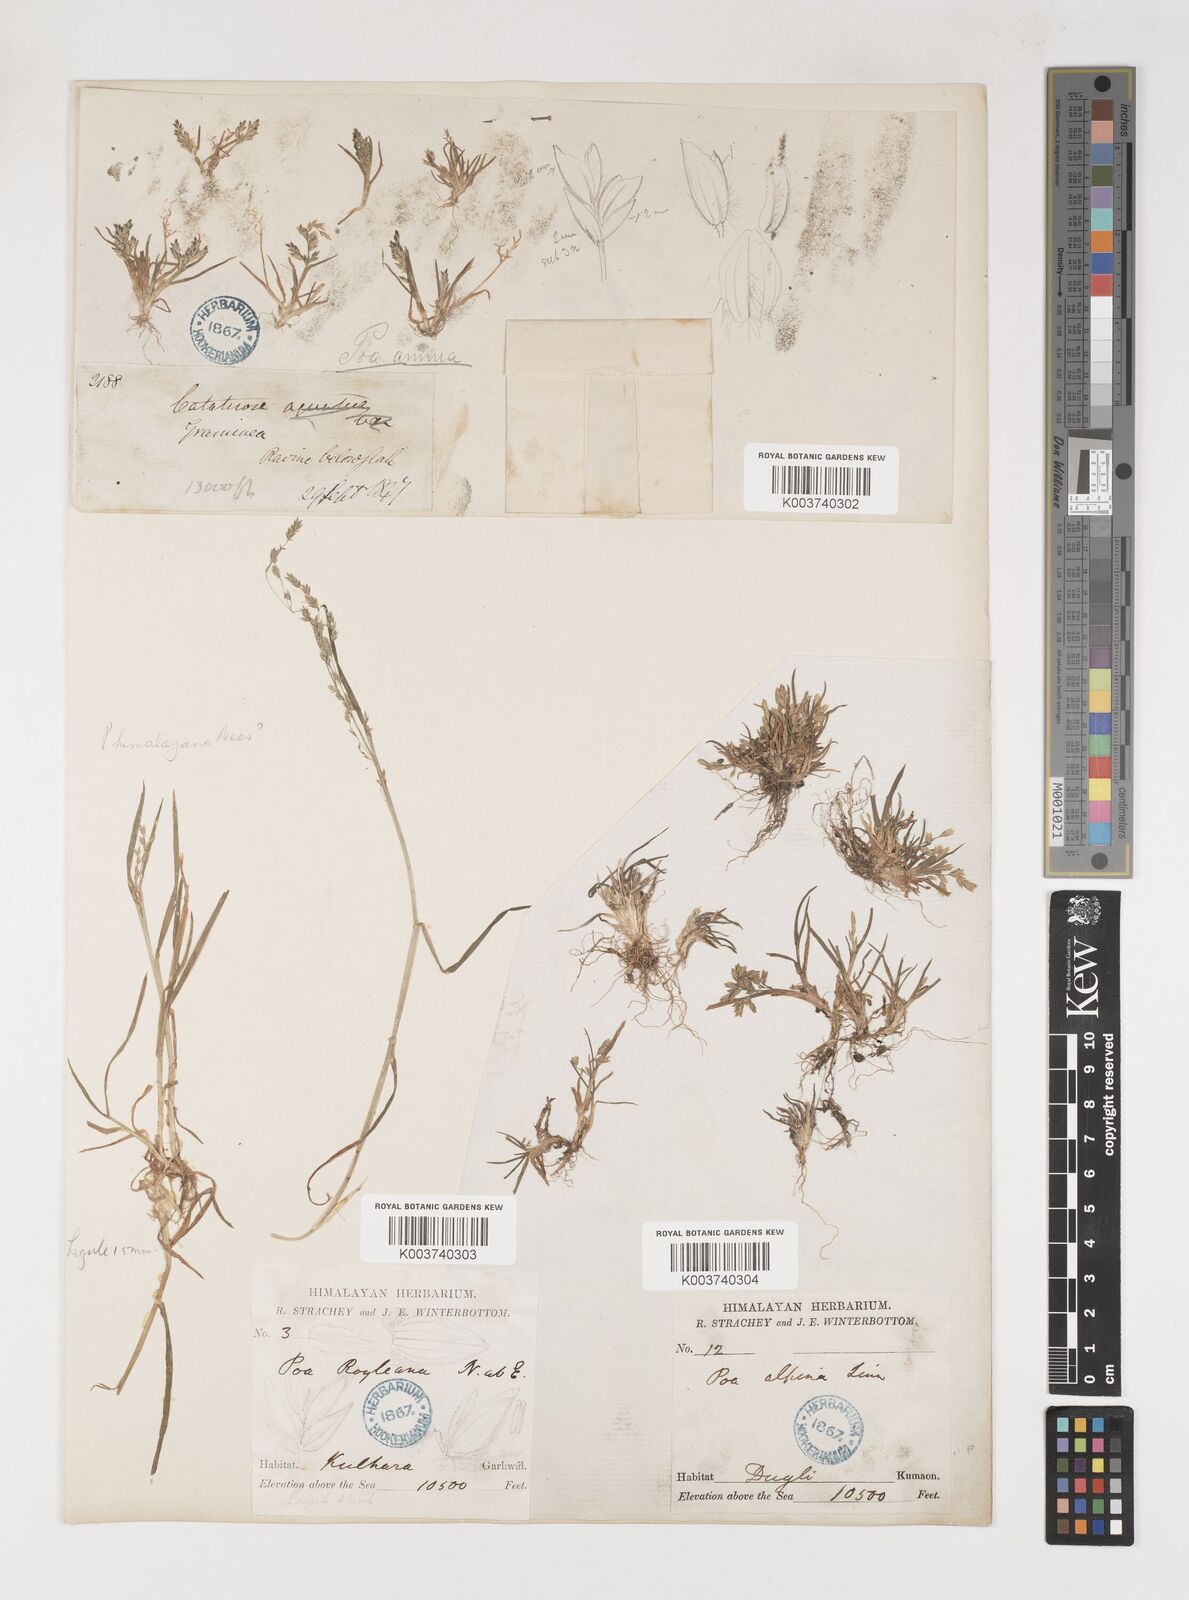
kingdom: Plantae
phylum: Tracheophyta
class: Liliopsida
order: Poales
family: Poaceae
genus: Poa
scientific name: Poa annua
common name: Annual bluegrass
